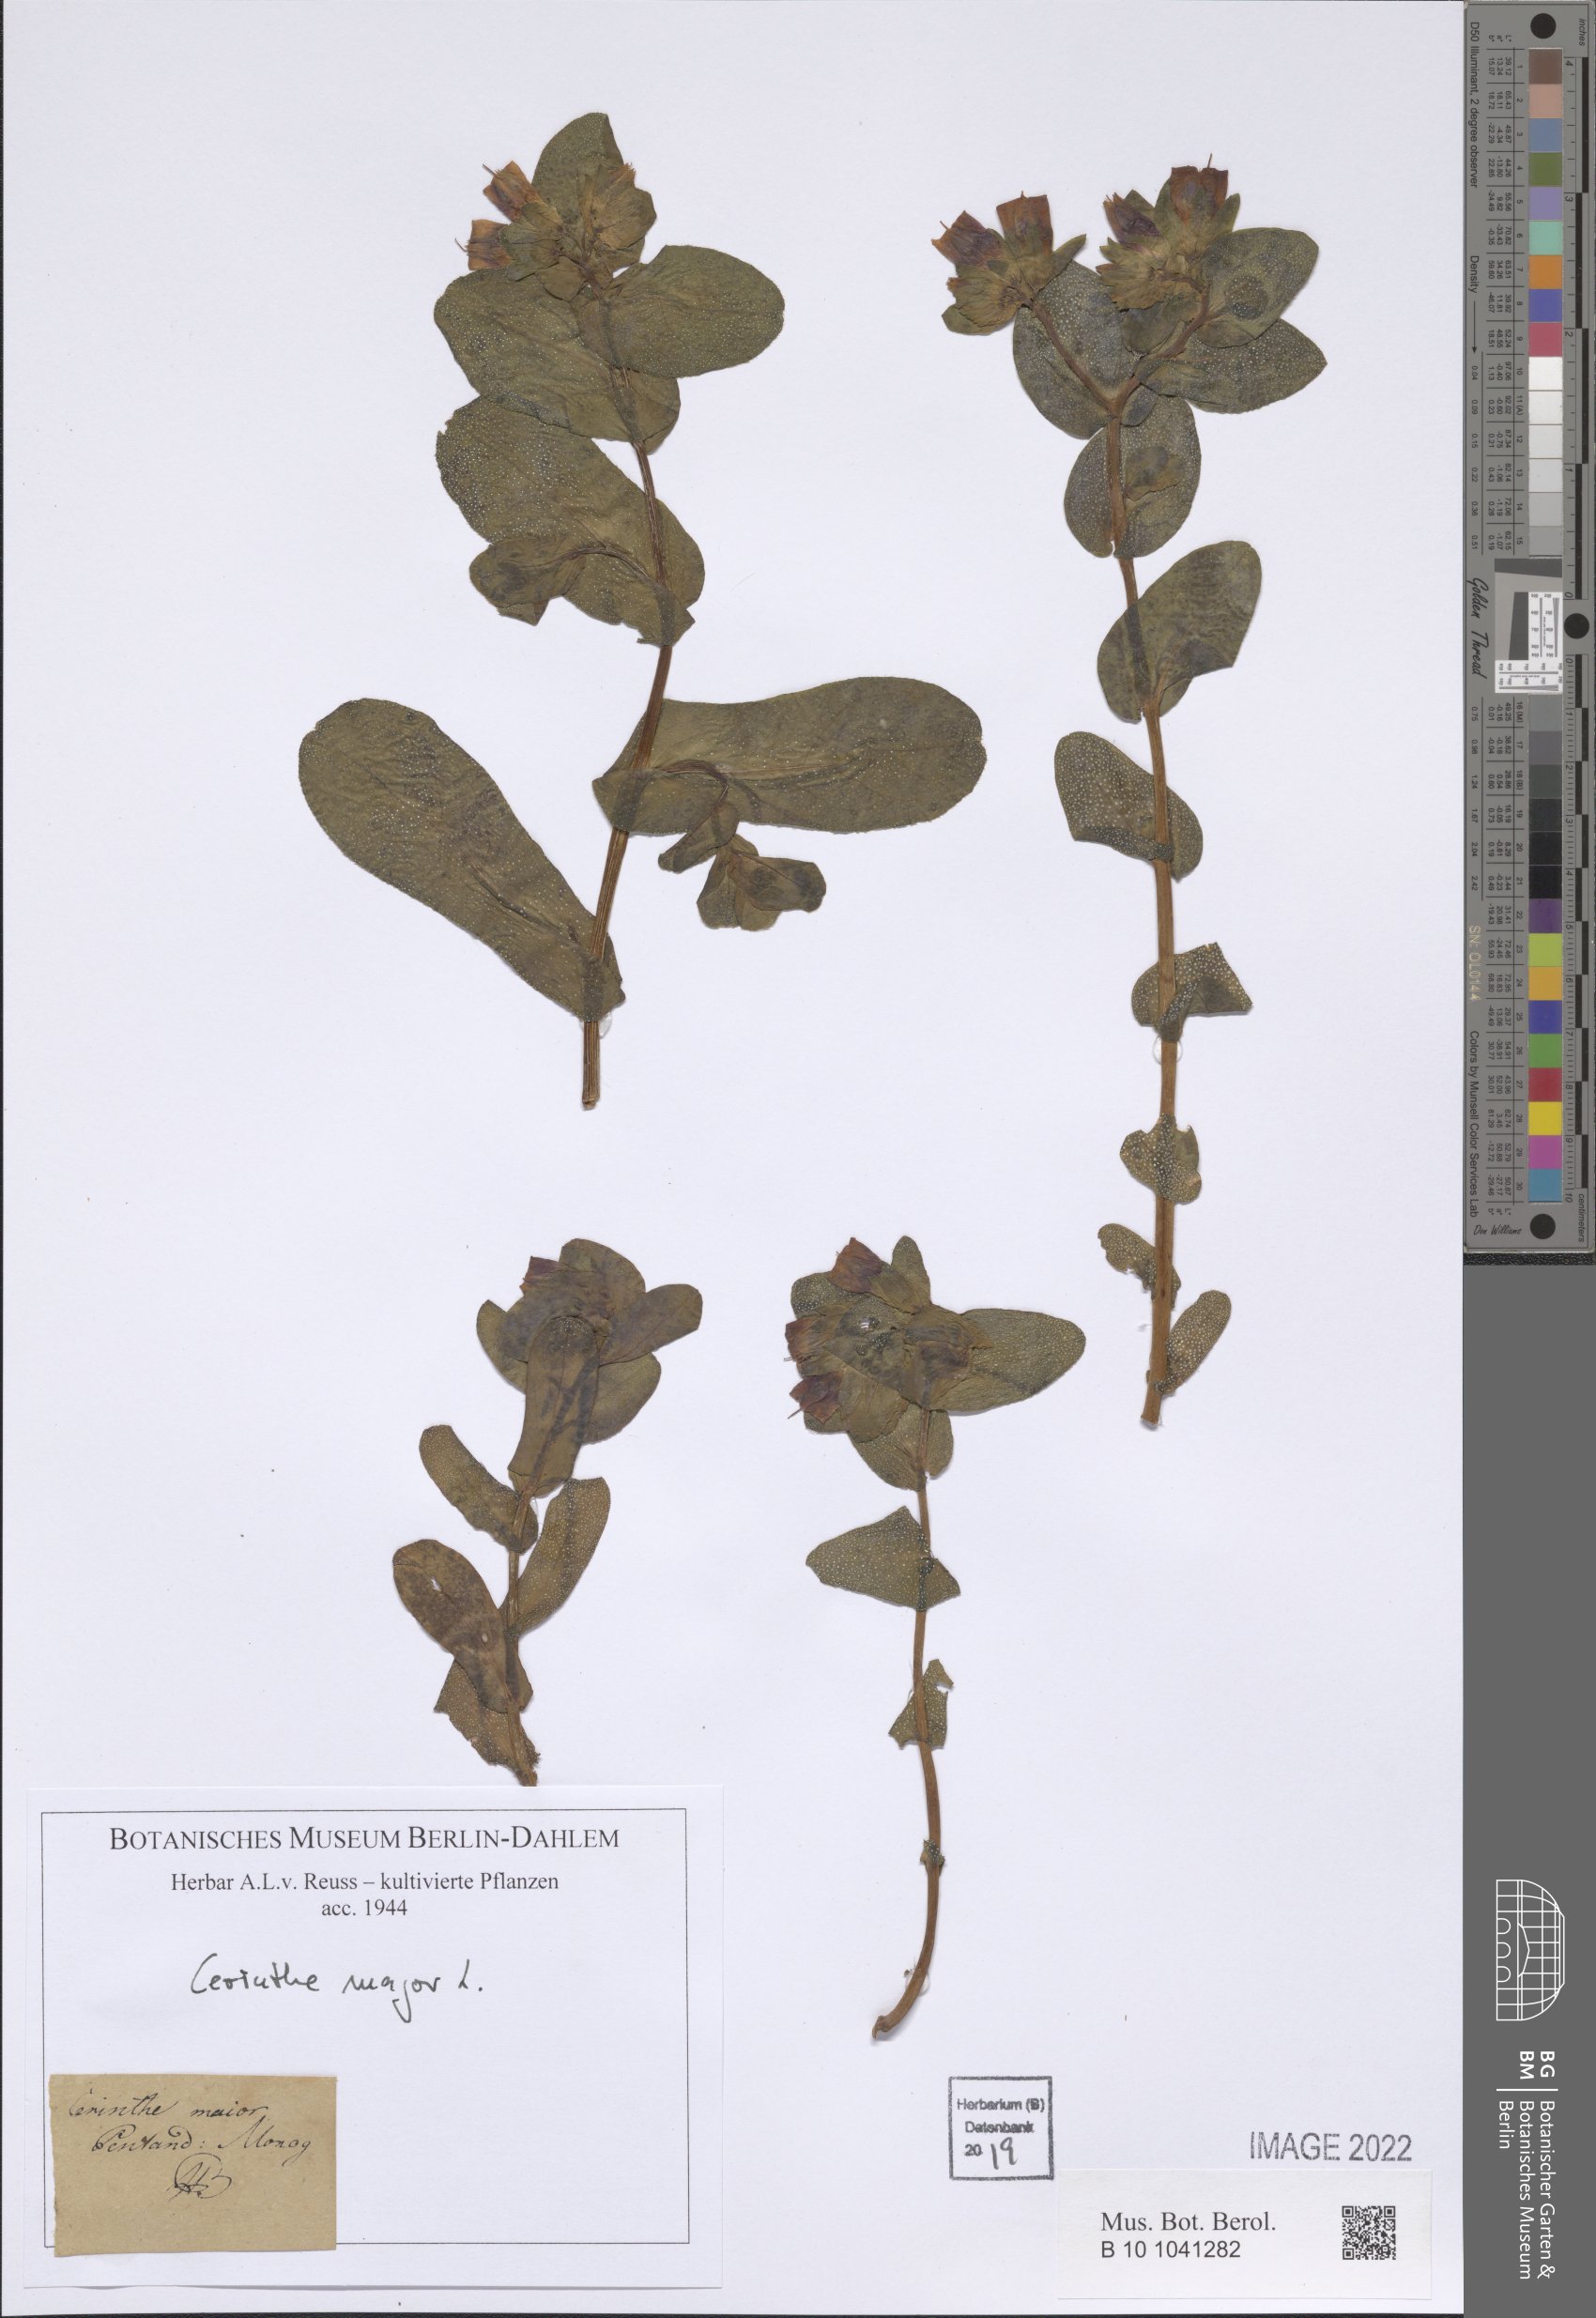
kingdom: Plantae
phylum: Tracheophyta
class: Magnoliopsida
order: Boraginales
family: Boraginaceae
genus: Cerinthe
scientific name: Cerinthe major
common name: Greater honeywort
